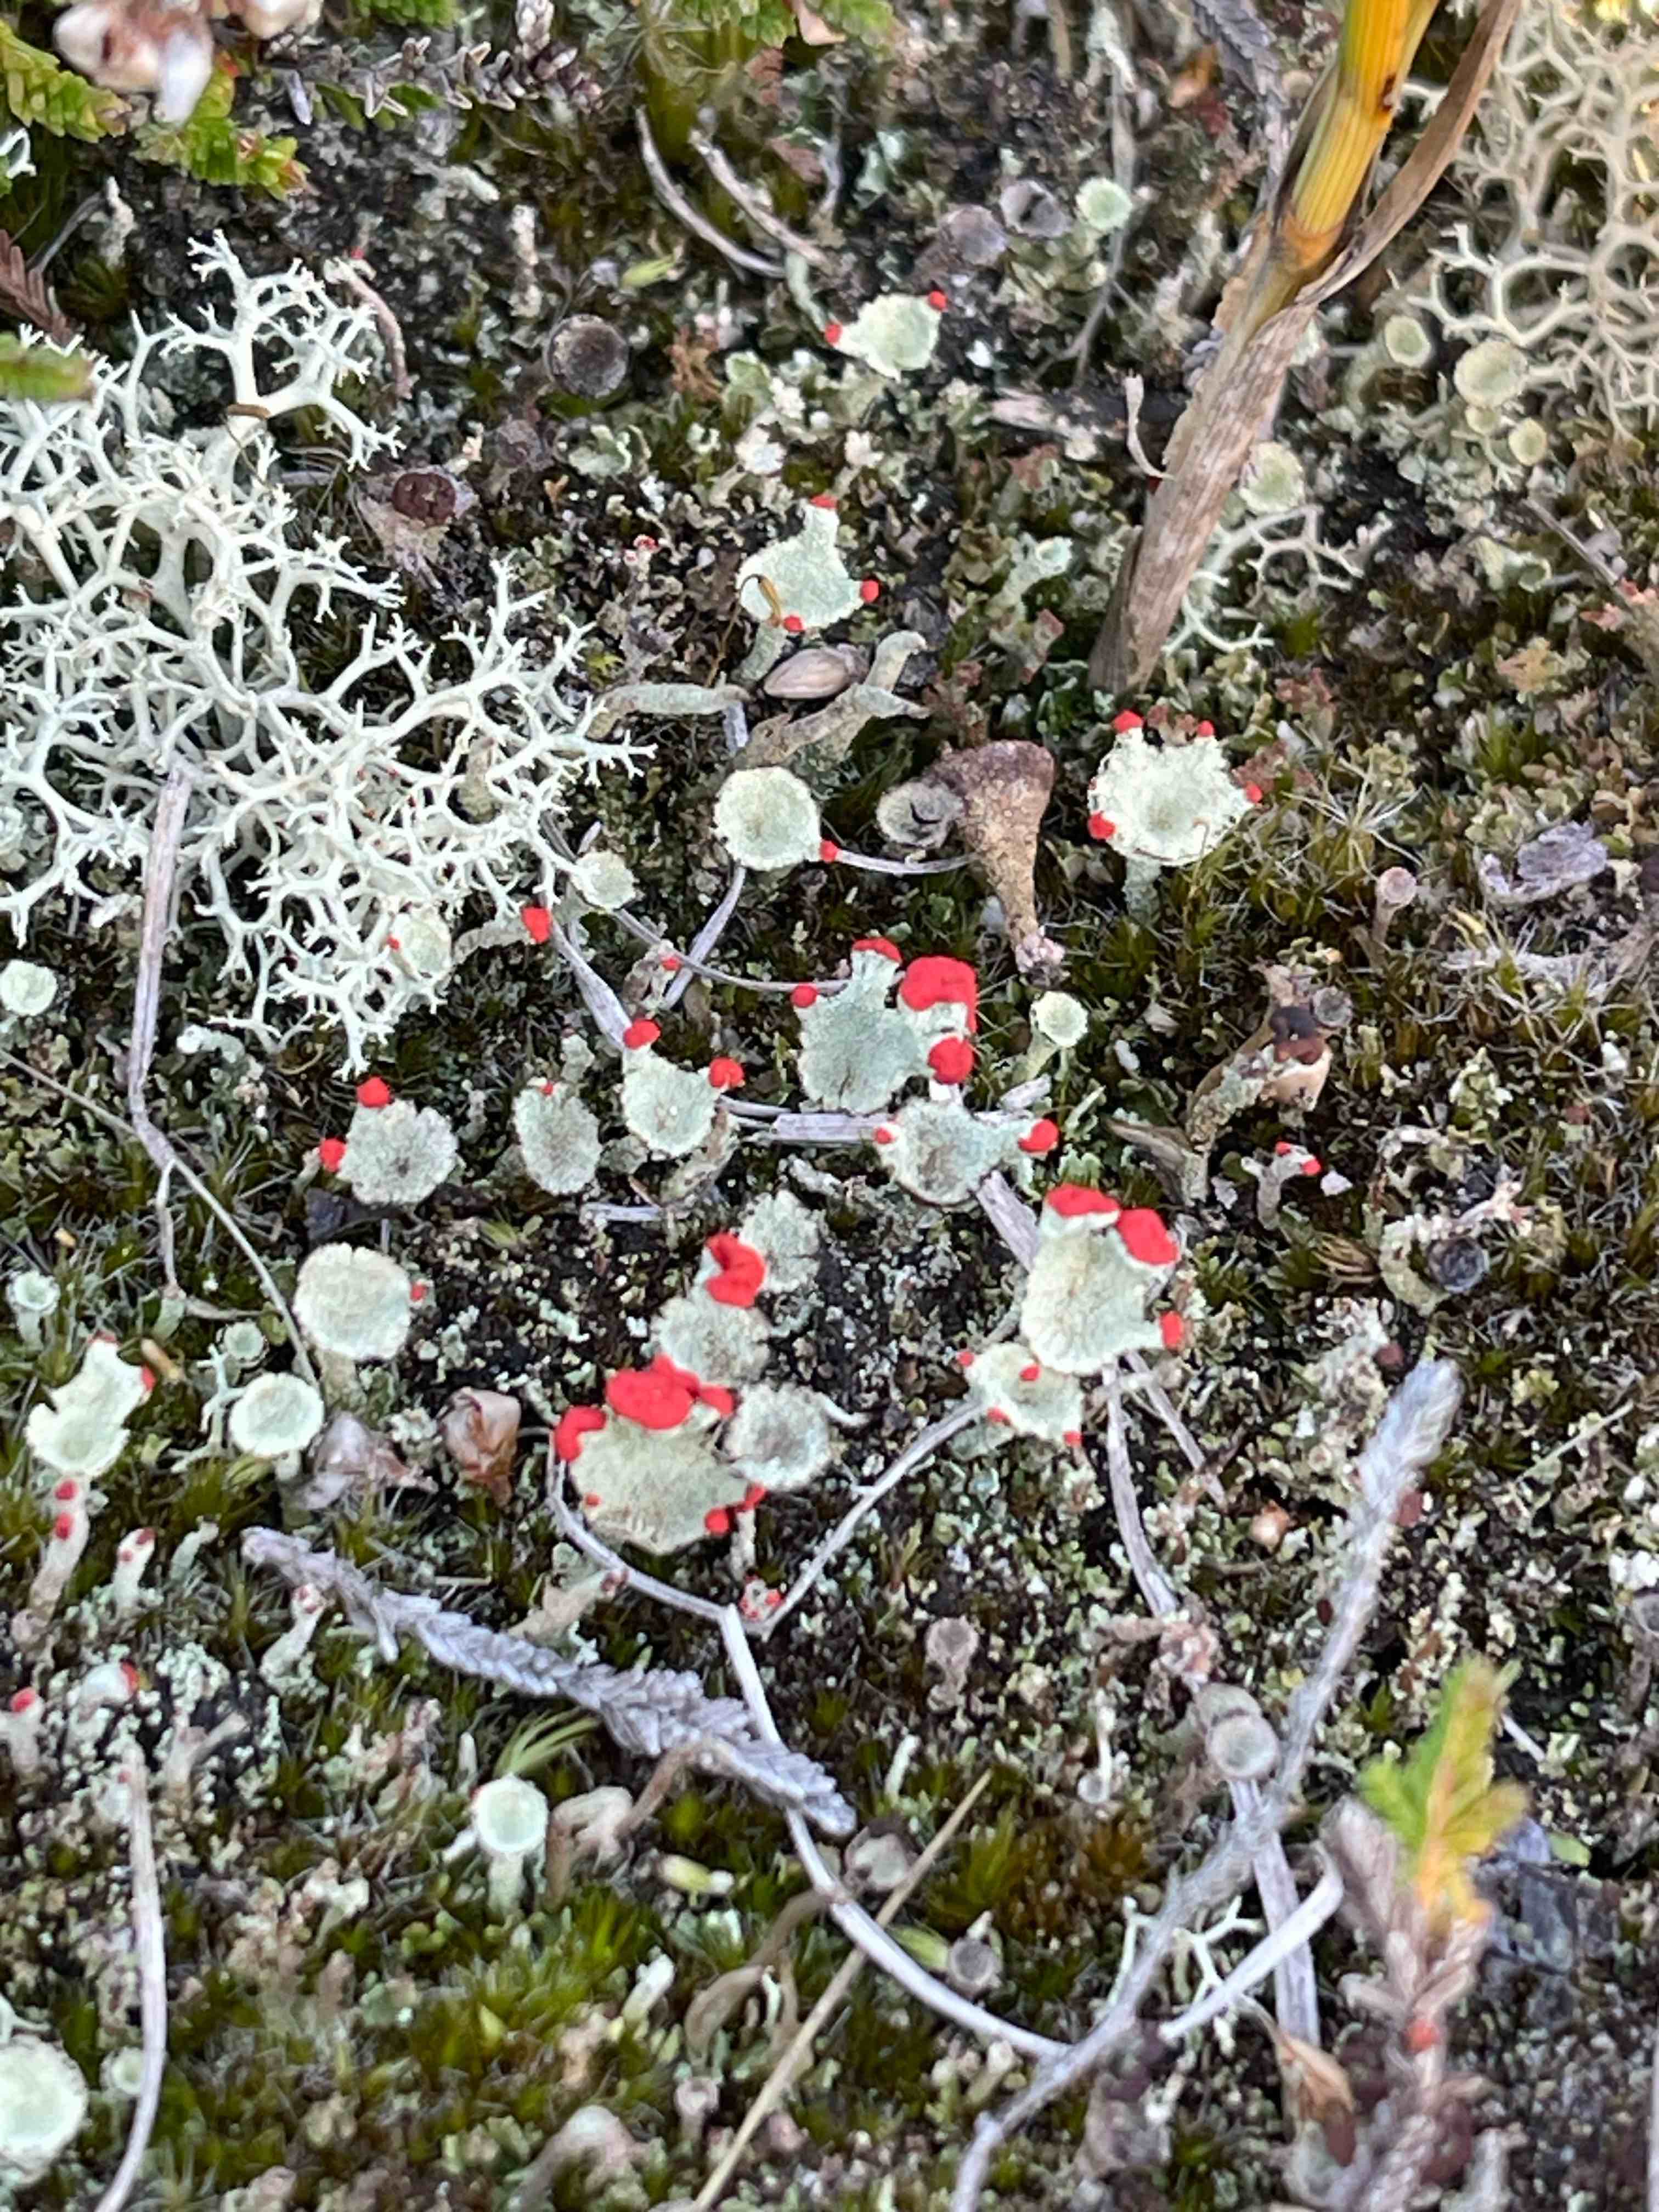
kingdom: Fungi
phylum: Ascomycota
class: Lecanoromycetes
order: Lecanorales
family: Cladoniaceae
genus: Cladonia
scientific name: Cladonia
